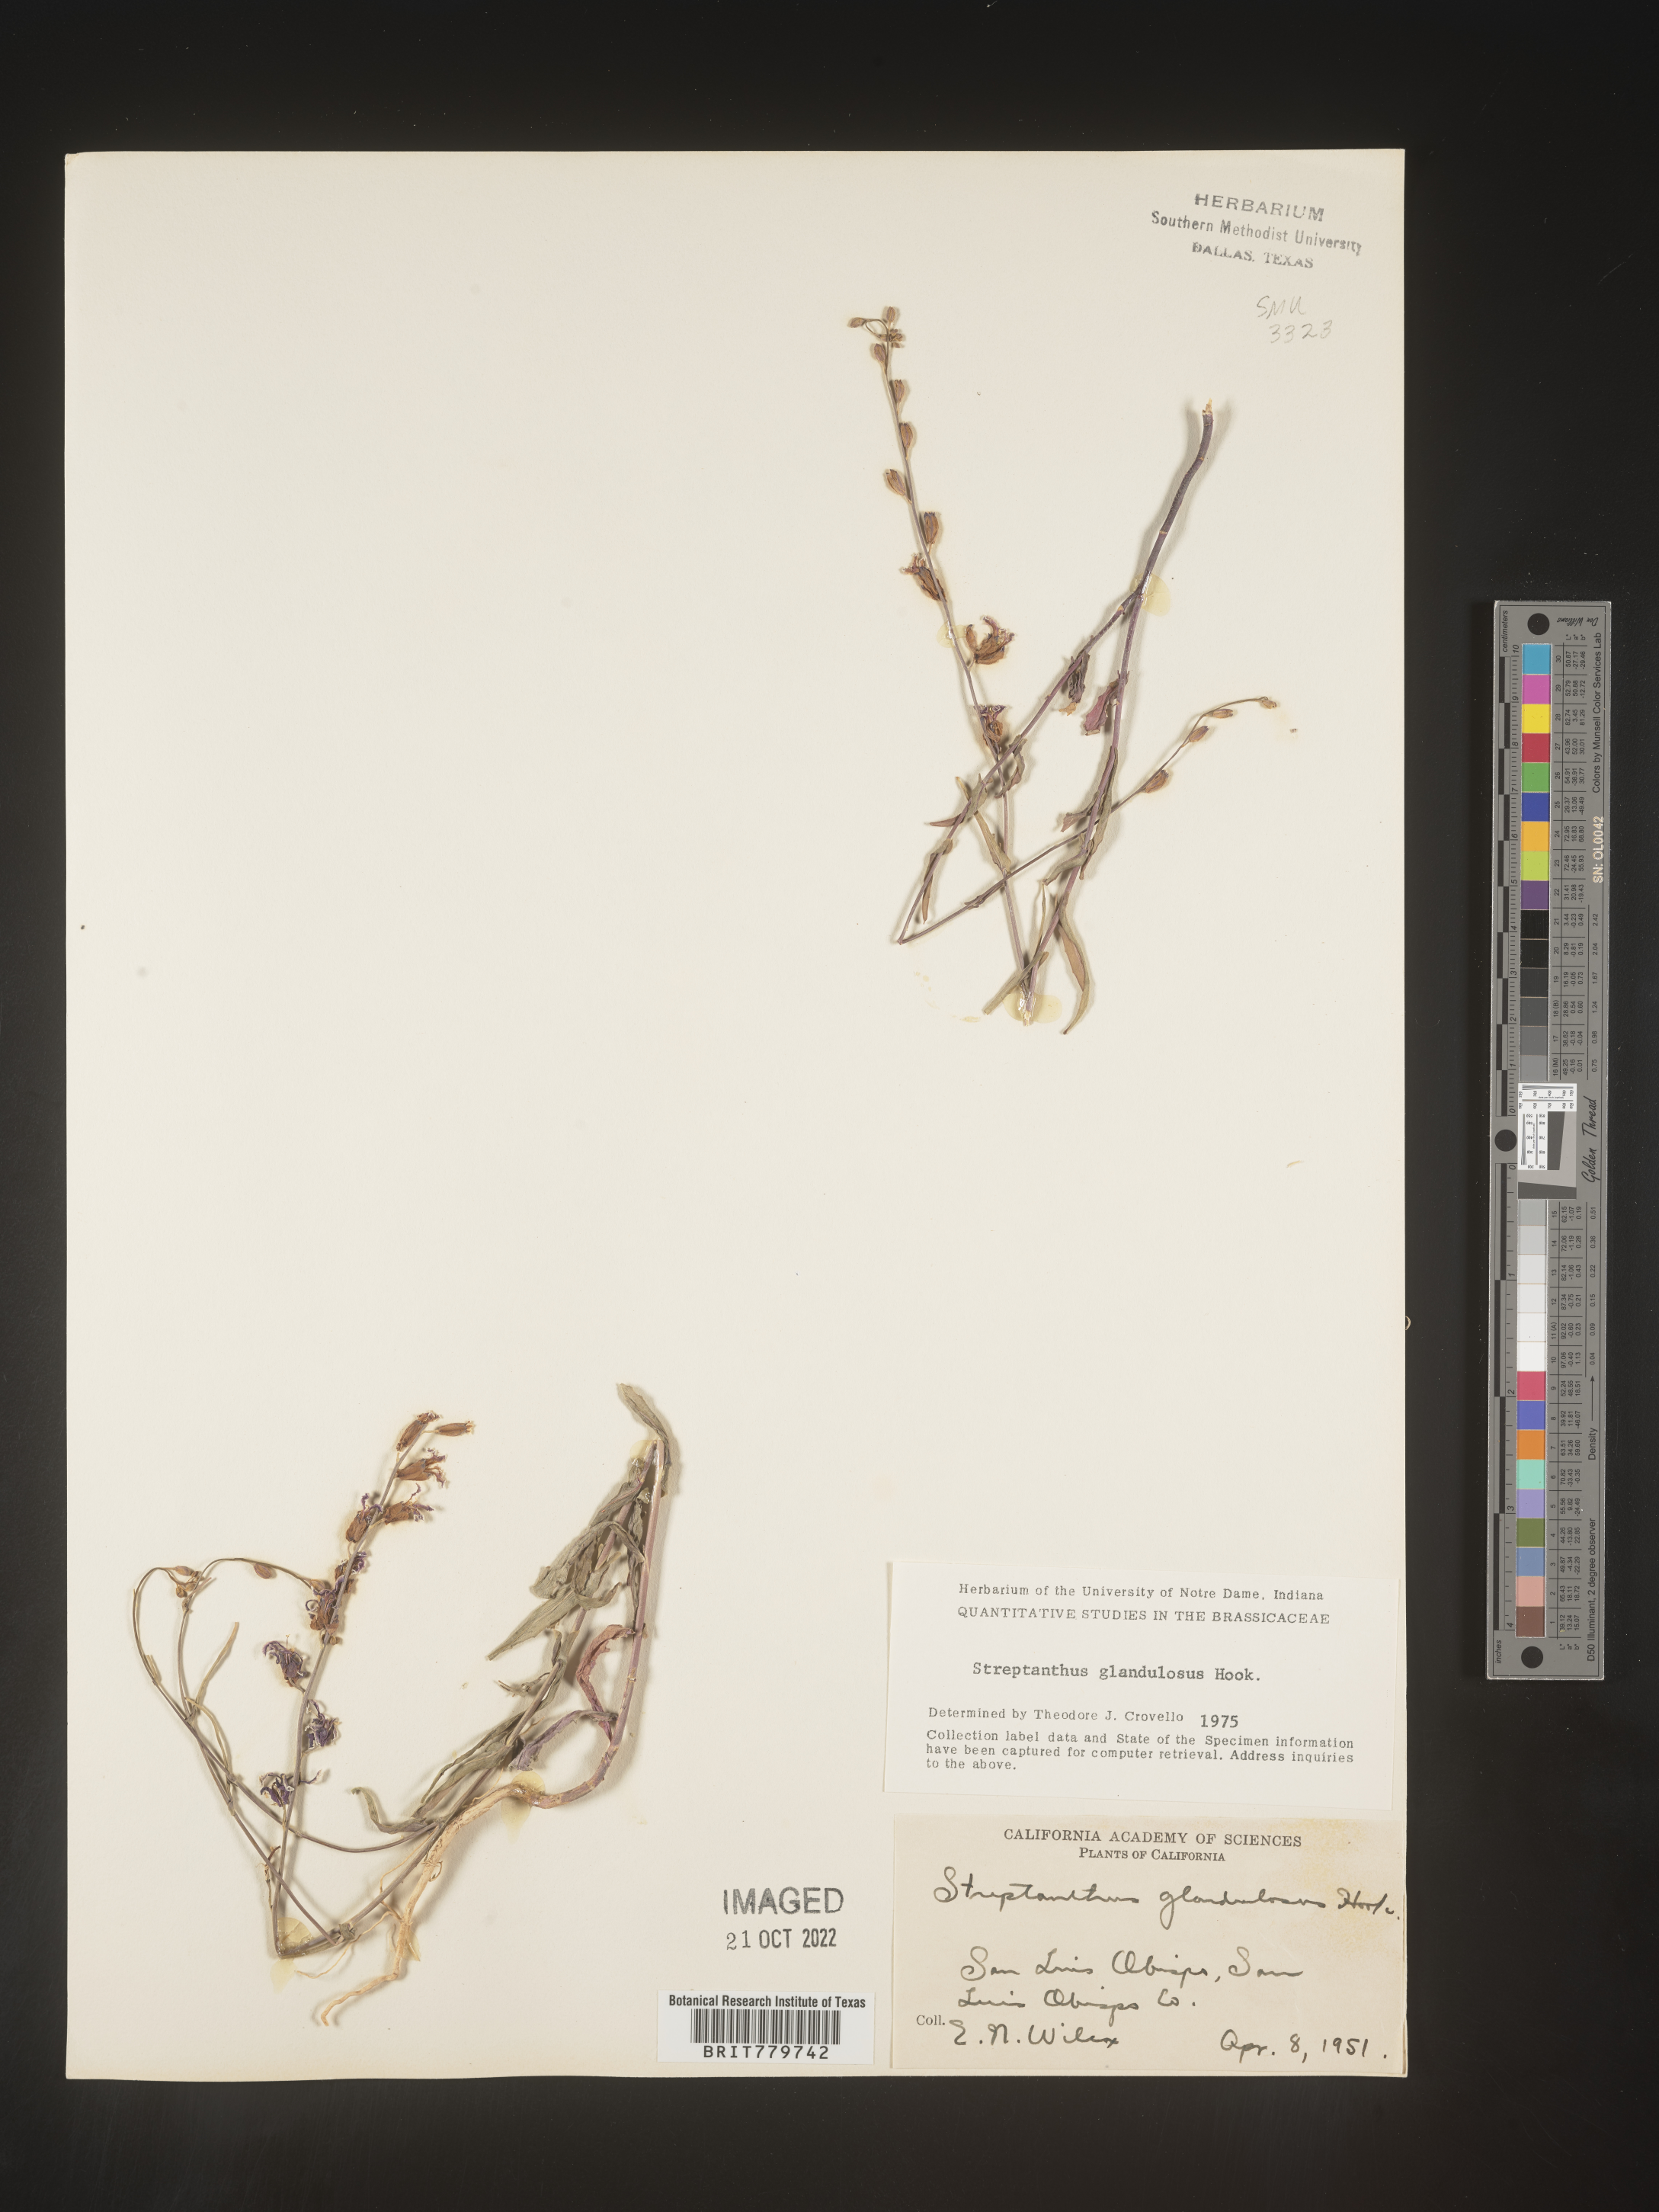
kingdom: Plantae
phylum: Tracheophyta
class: Magnoliopsida
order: Brassicales
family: Brassicaceae
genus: Streptanthus
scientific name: Streptanthus
